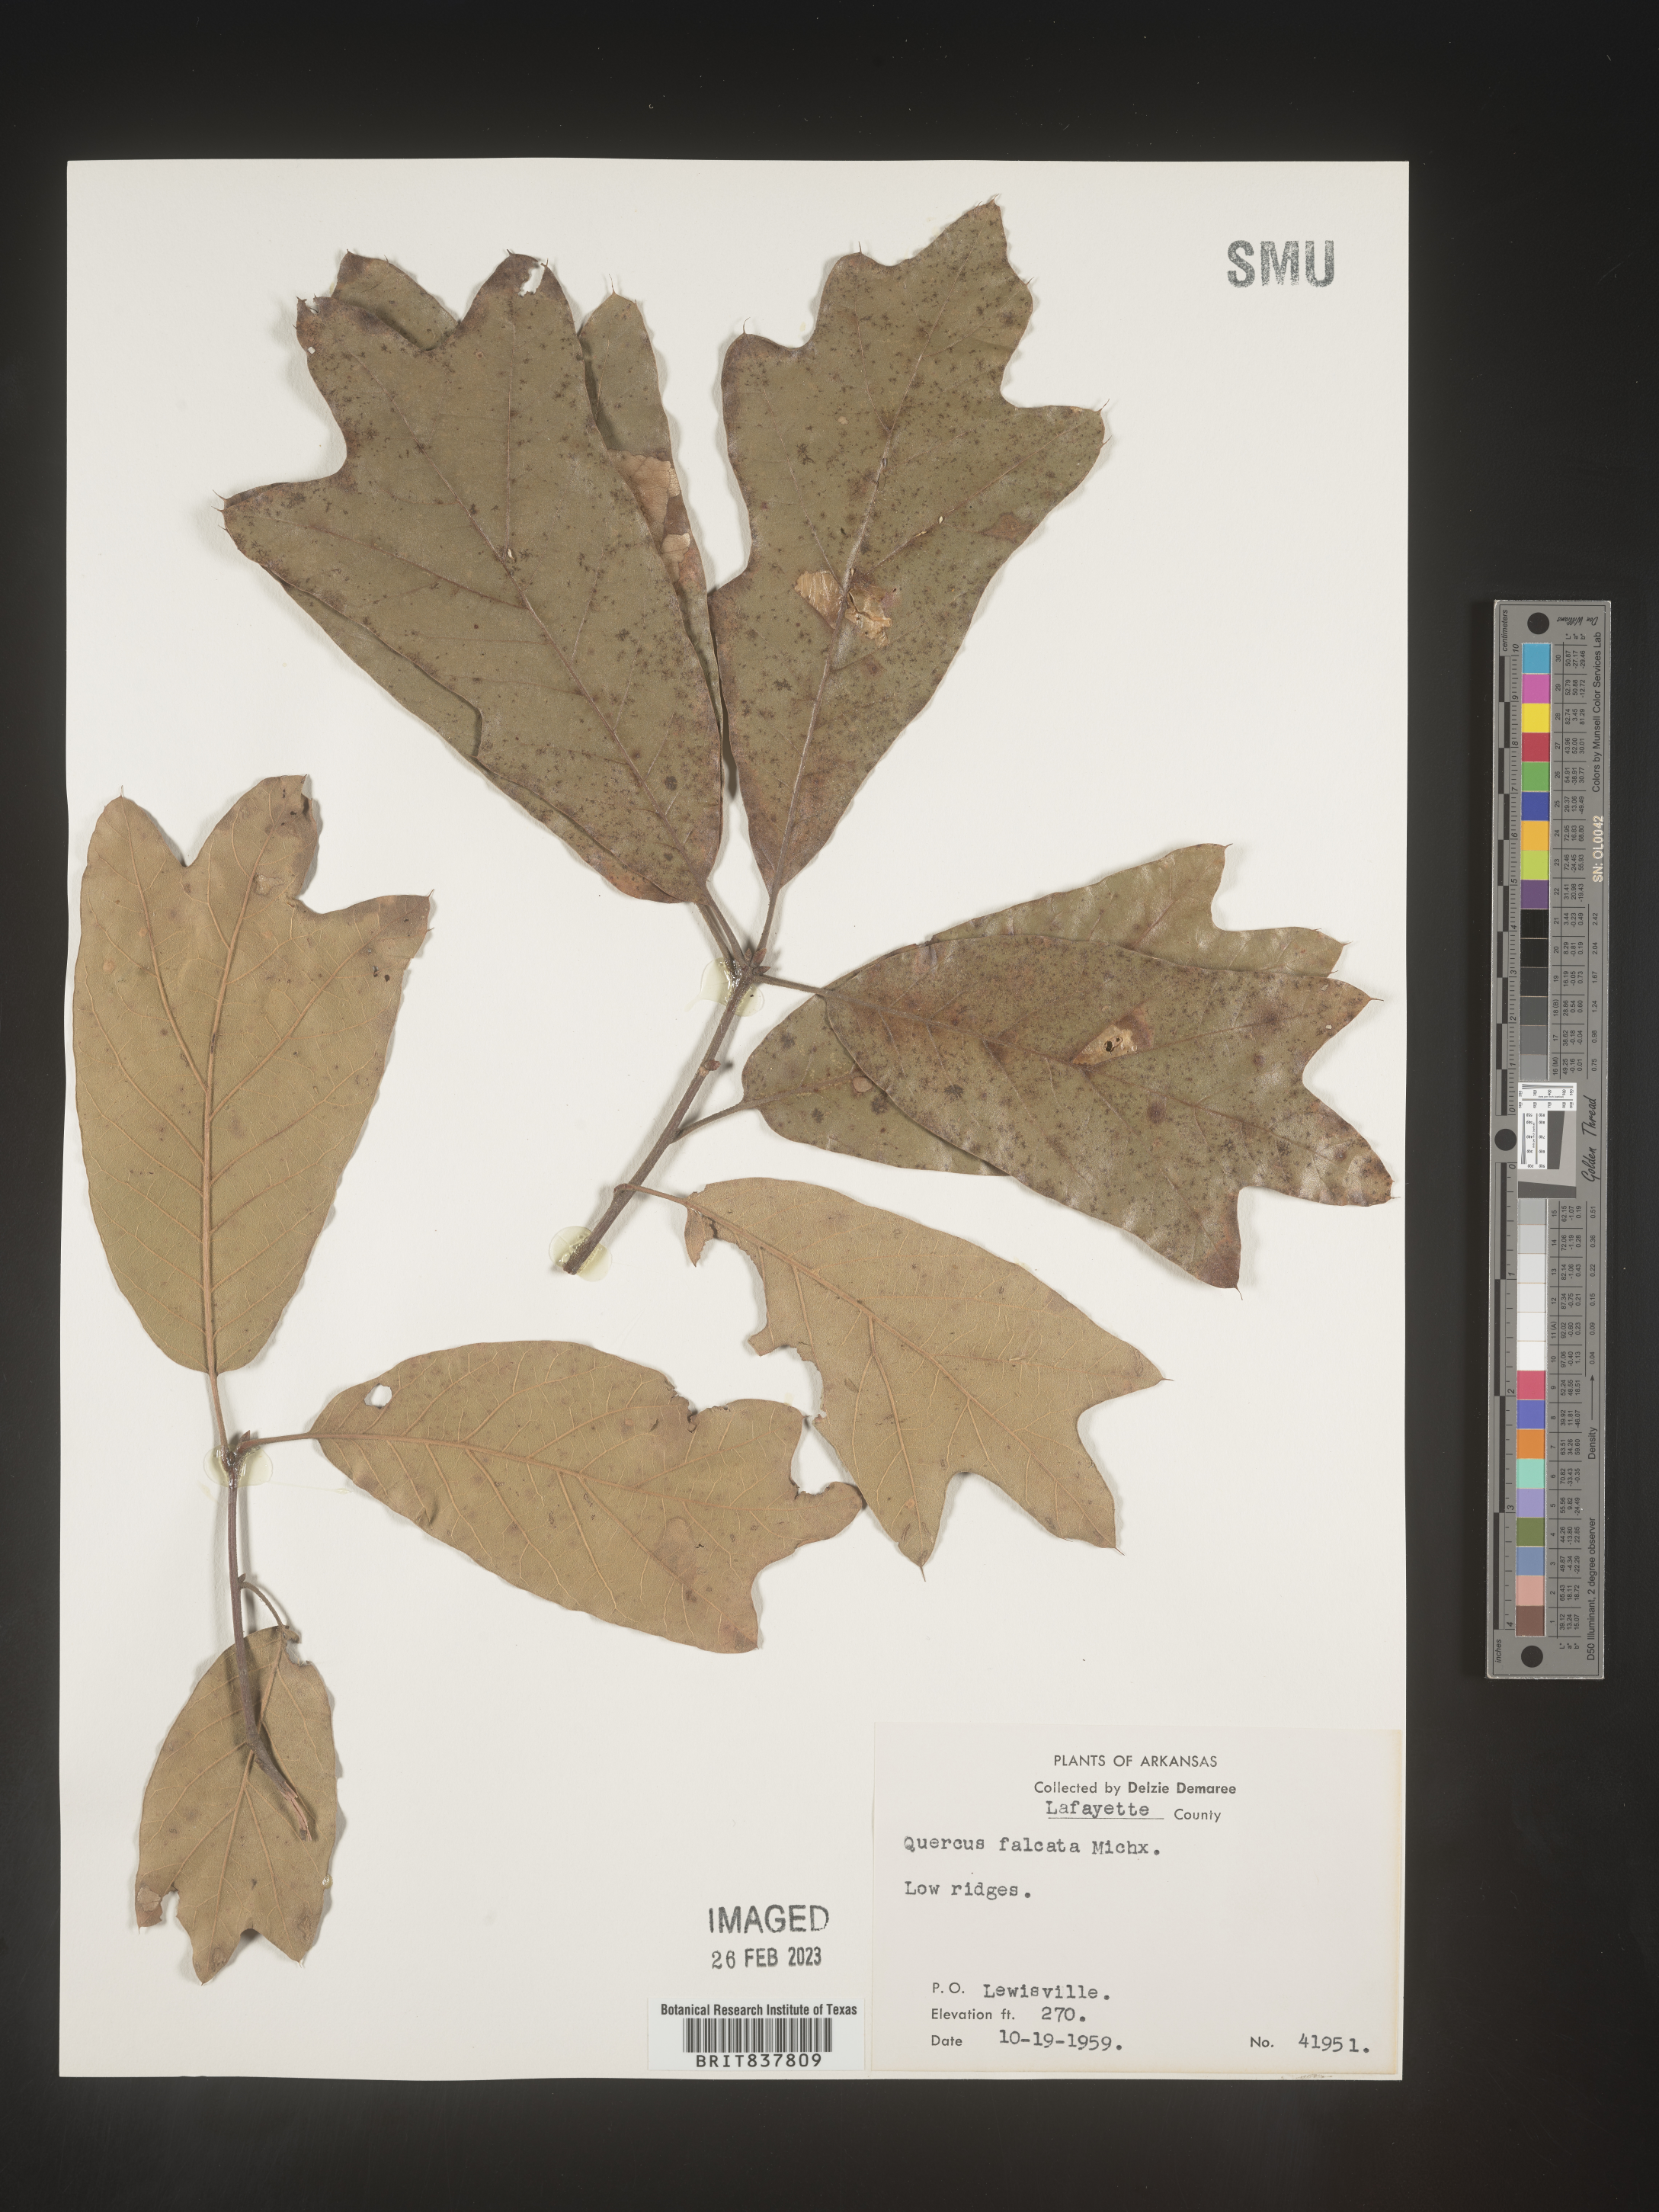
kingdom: Plantae
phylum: Tracheophyta
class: Magnoliopsida
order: Fagales
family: Fagaceae
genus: Quercus
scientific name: Quercus arkansana
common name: Arkansas oak
